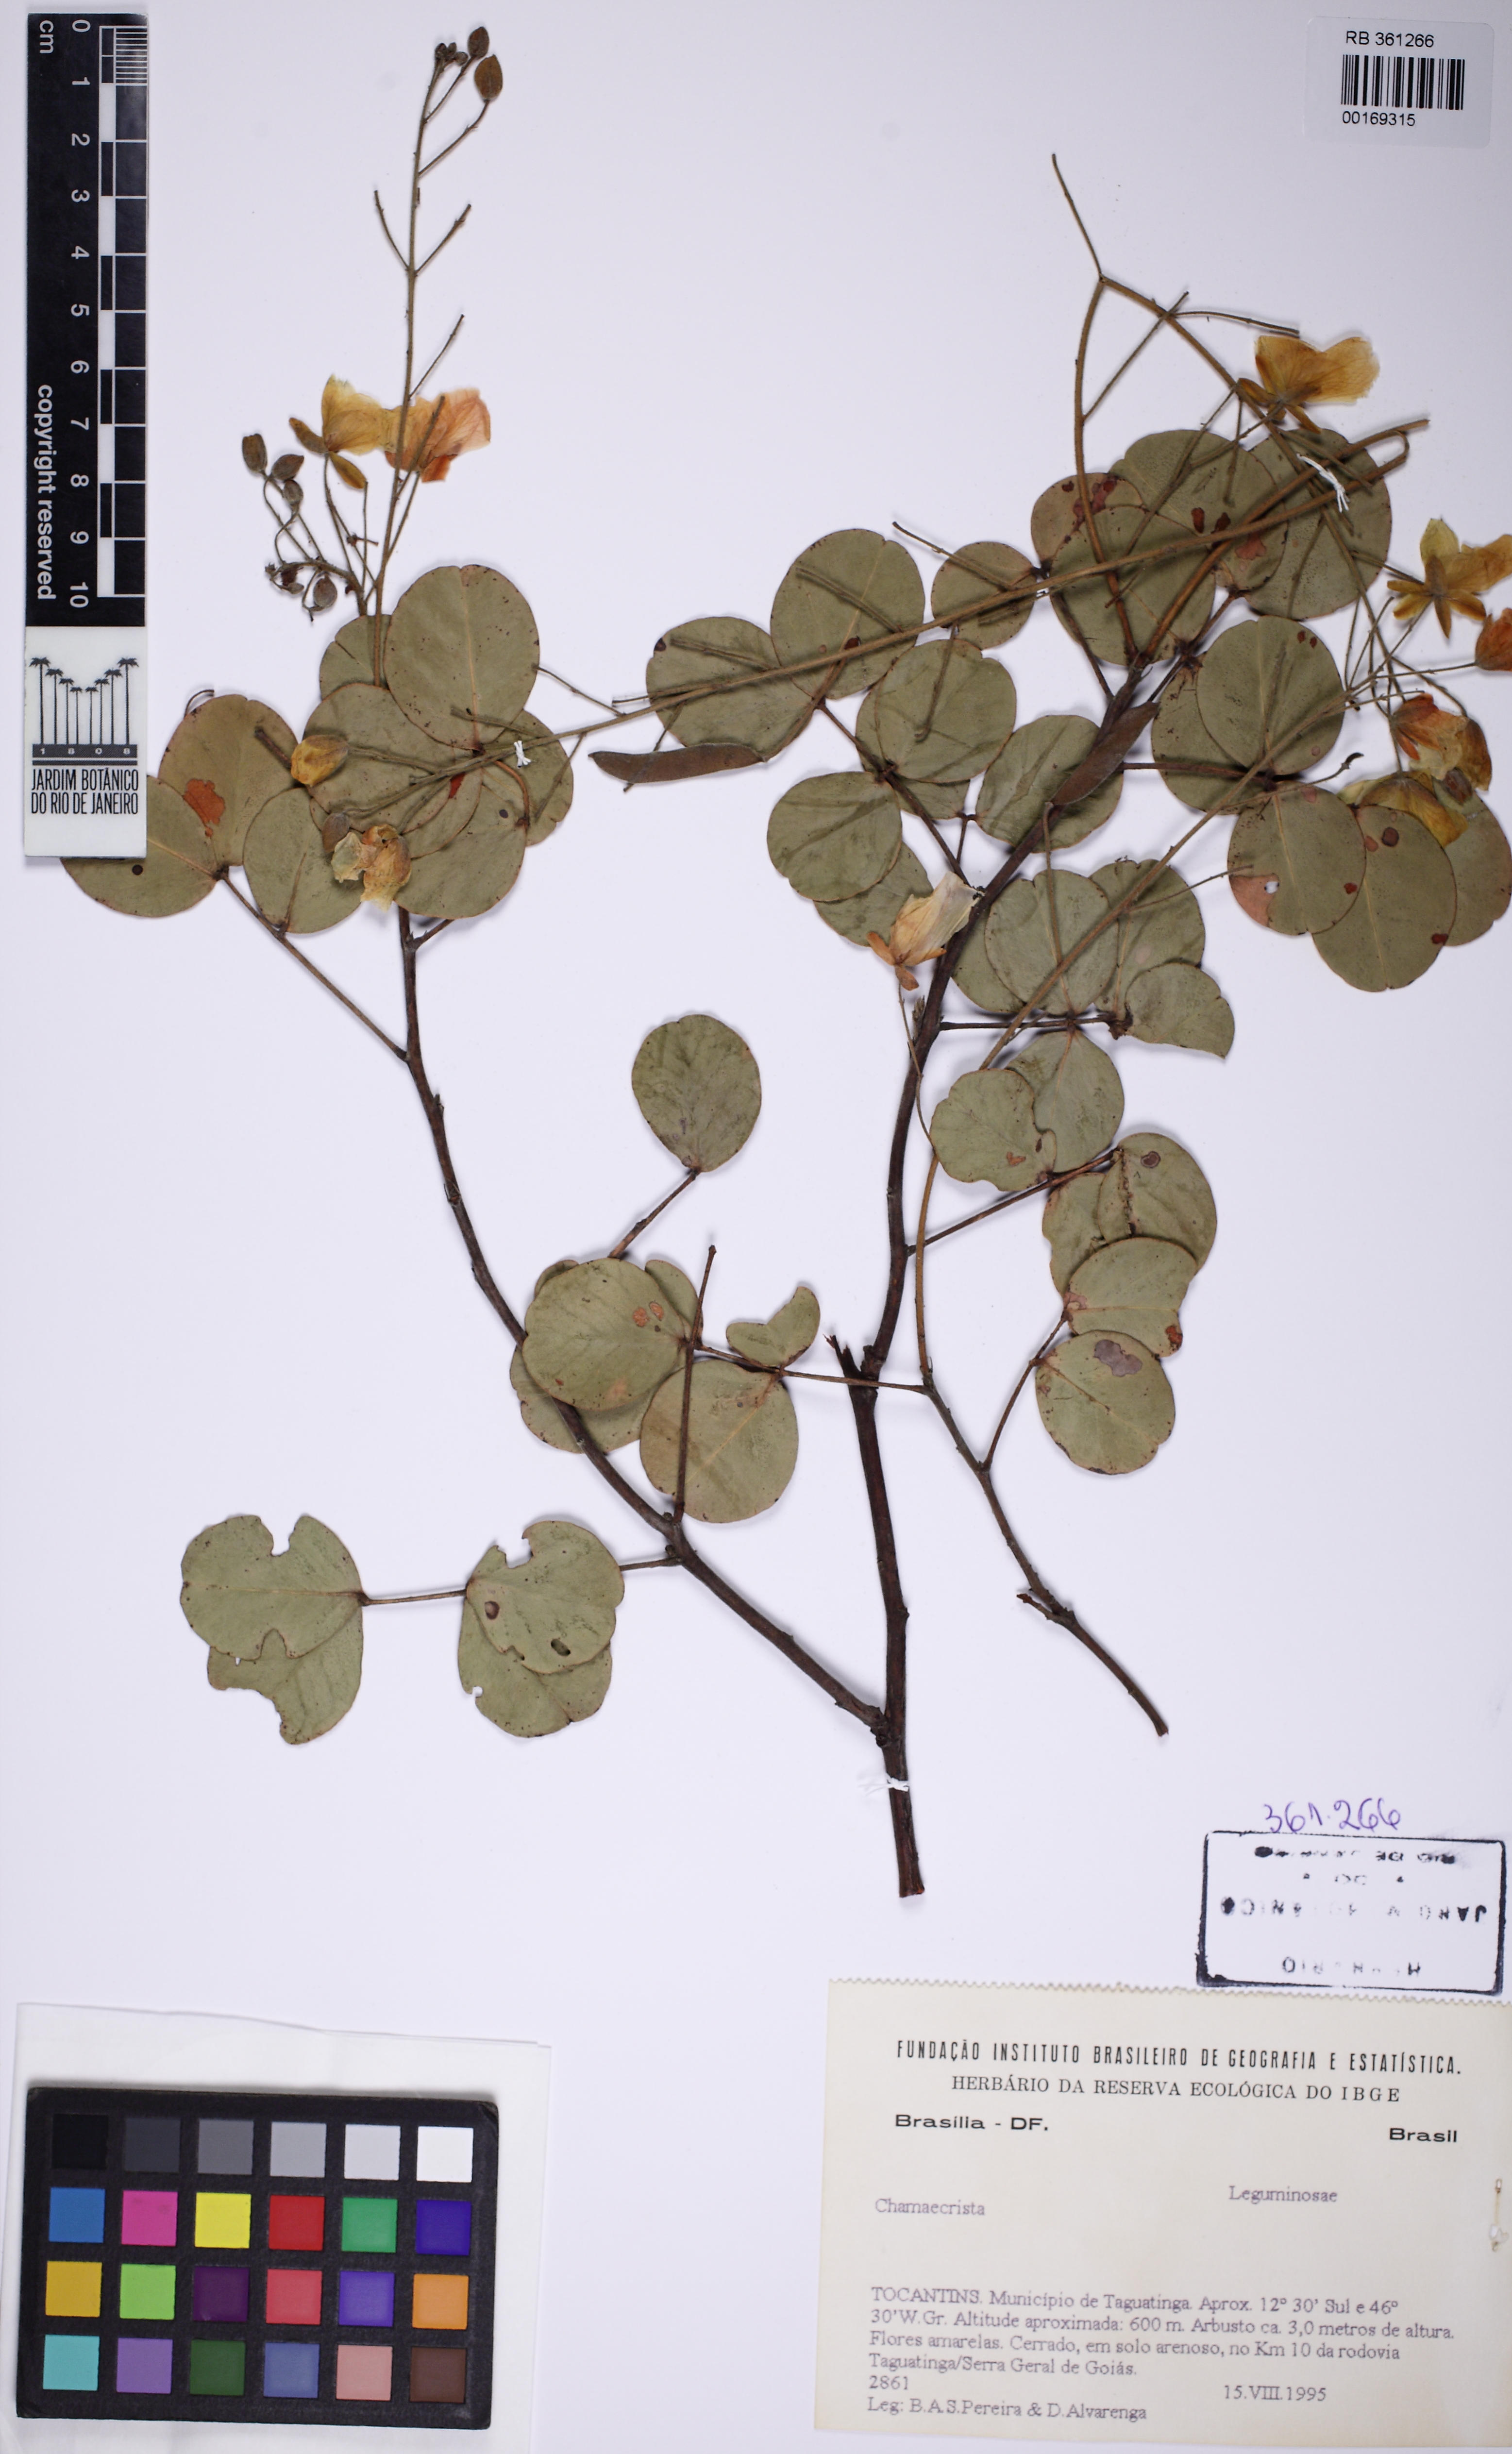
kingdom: Plantae
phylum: Tracheophyta
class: Magnoliopsida
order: Fabales
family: Fabaceae
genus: Chamaecrista
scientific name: Chamaecrista
